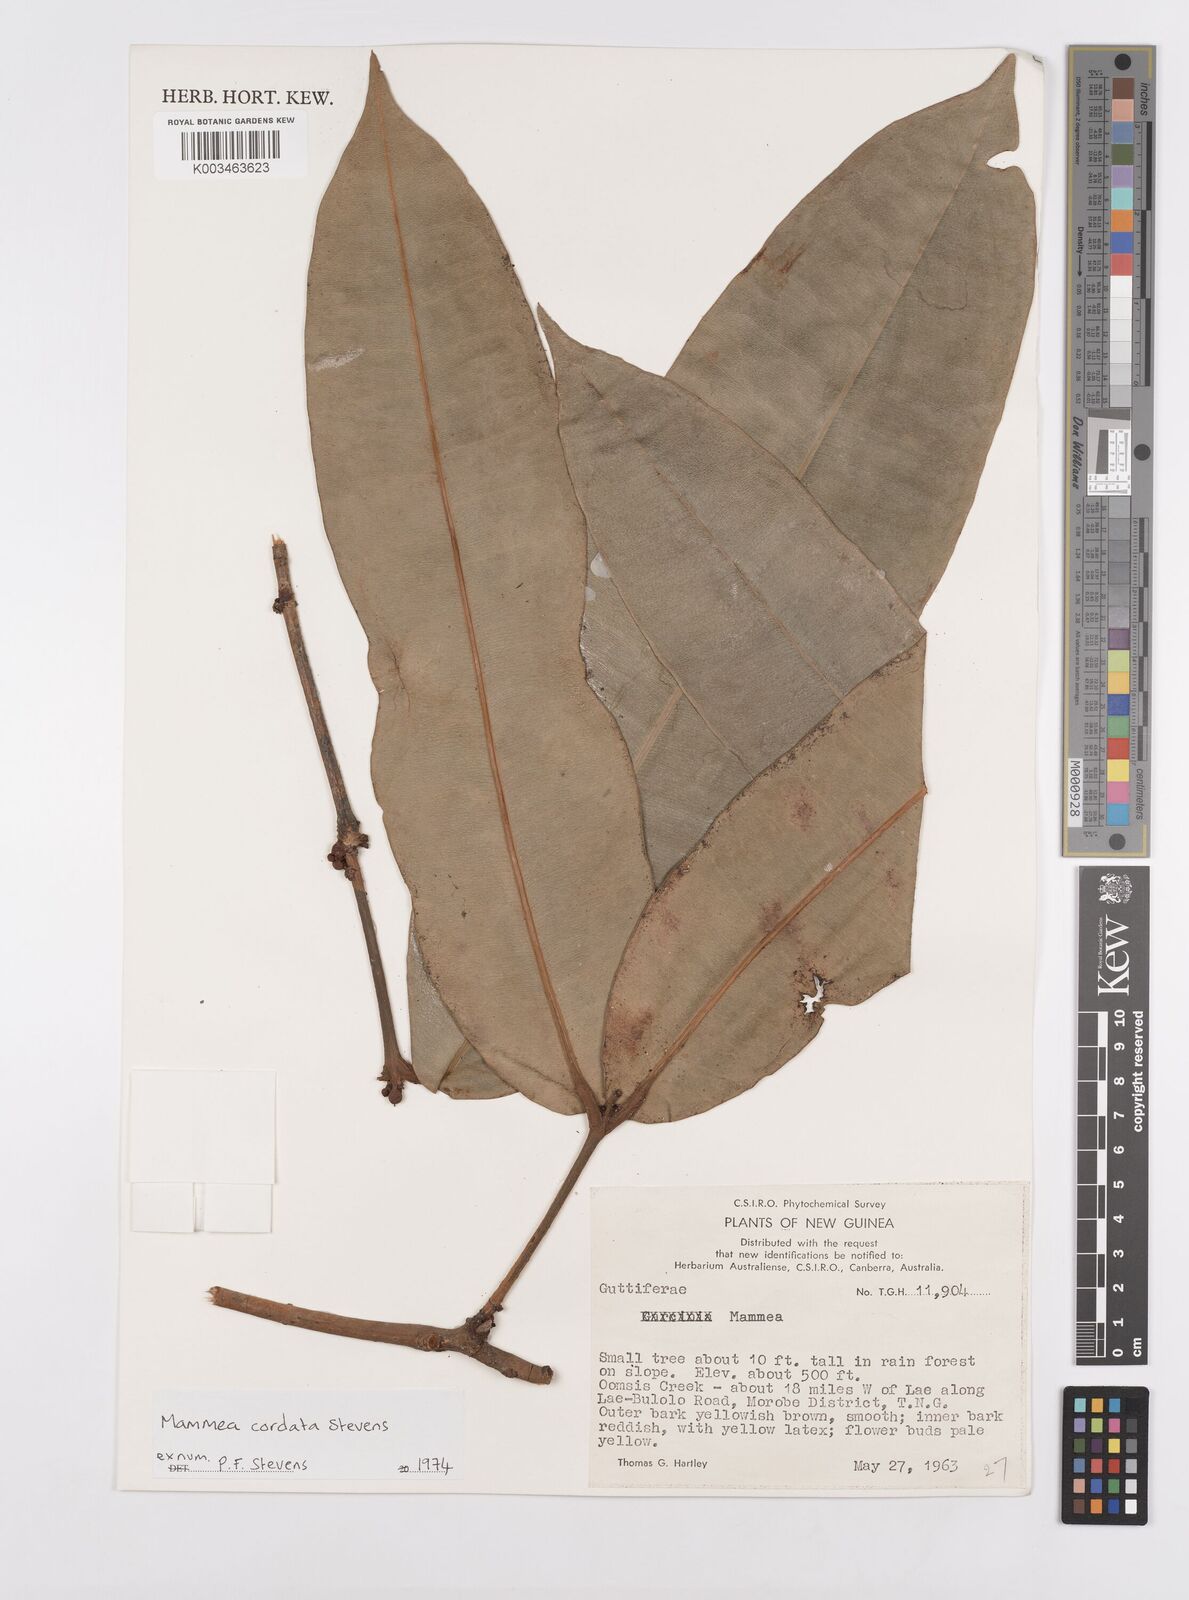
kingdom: Plantae
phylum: Tracheophyta
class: Magnoliopsida
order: Malpighiales
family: Calophyllaceae
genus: Mammea
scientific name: Mammea cordata
